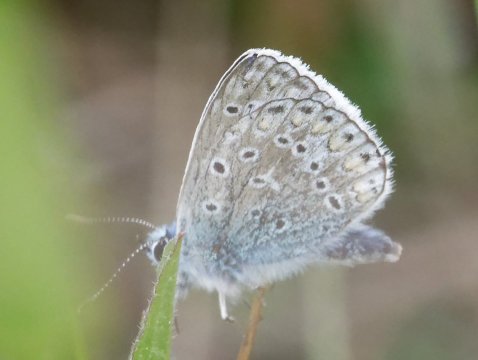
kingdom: Animalia
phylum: Arthropoda
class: Insecta
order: Lepidoptera
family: Lycaenidae
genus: Polyommatus
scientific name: Polyommatus icarus
